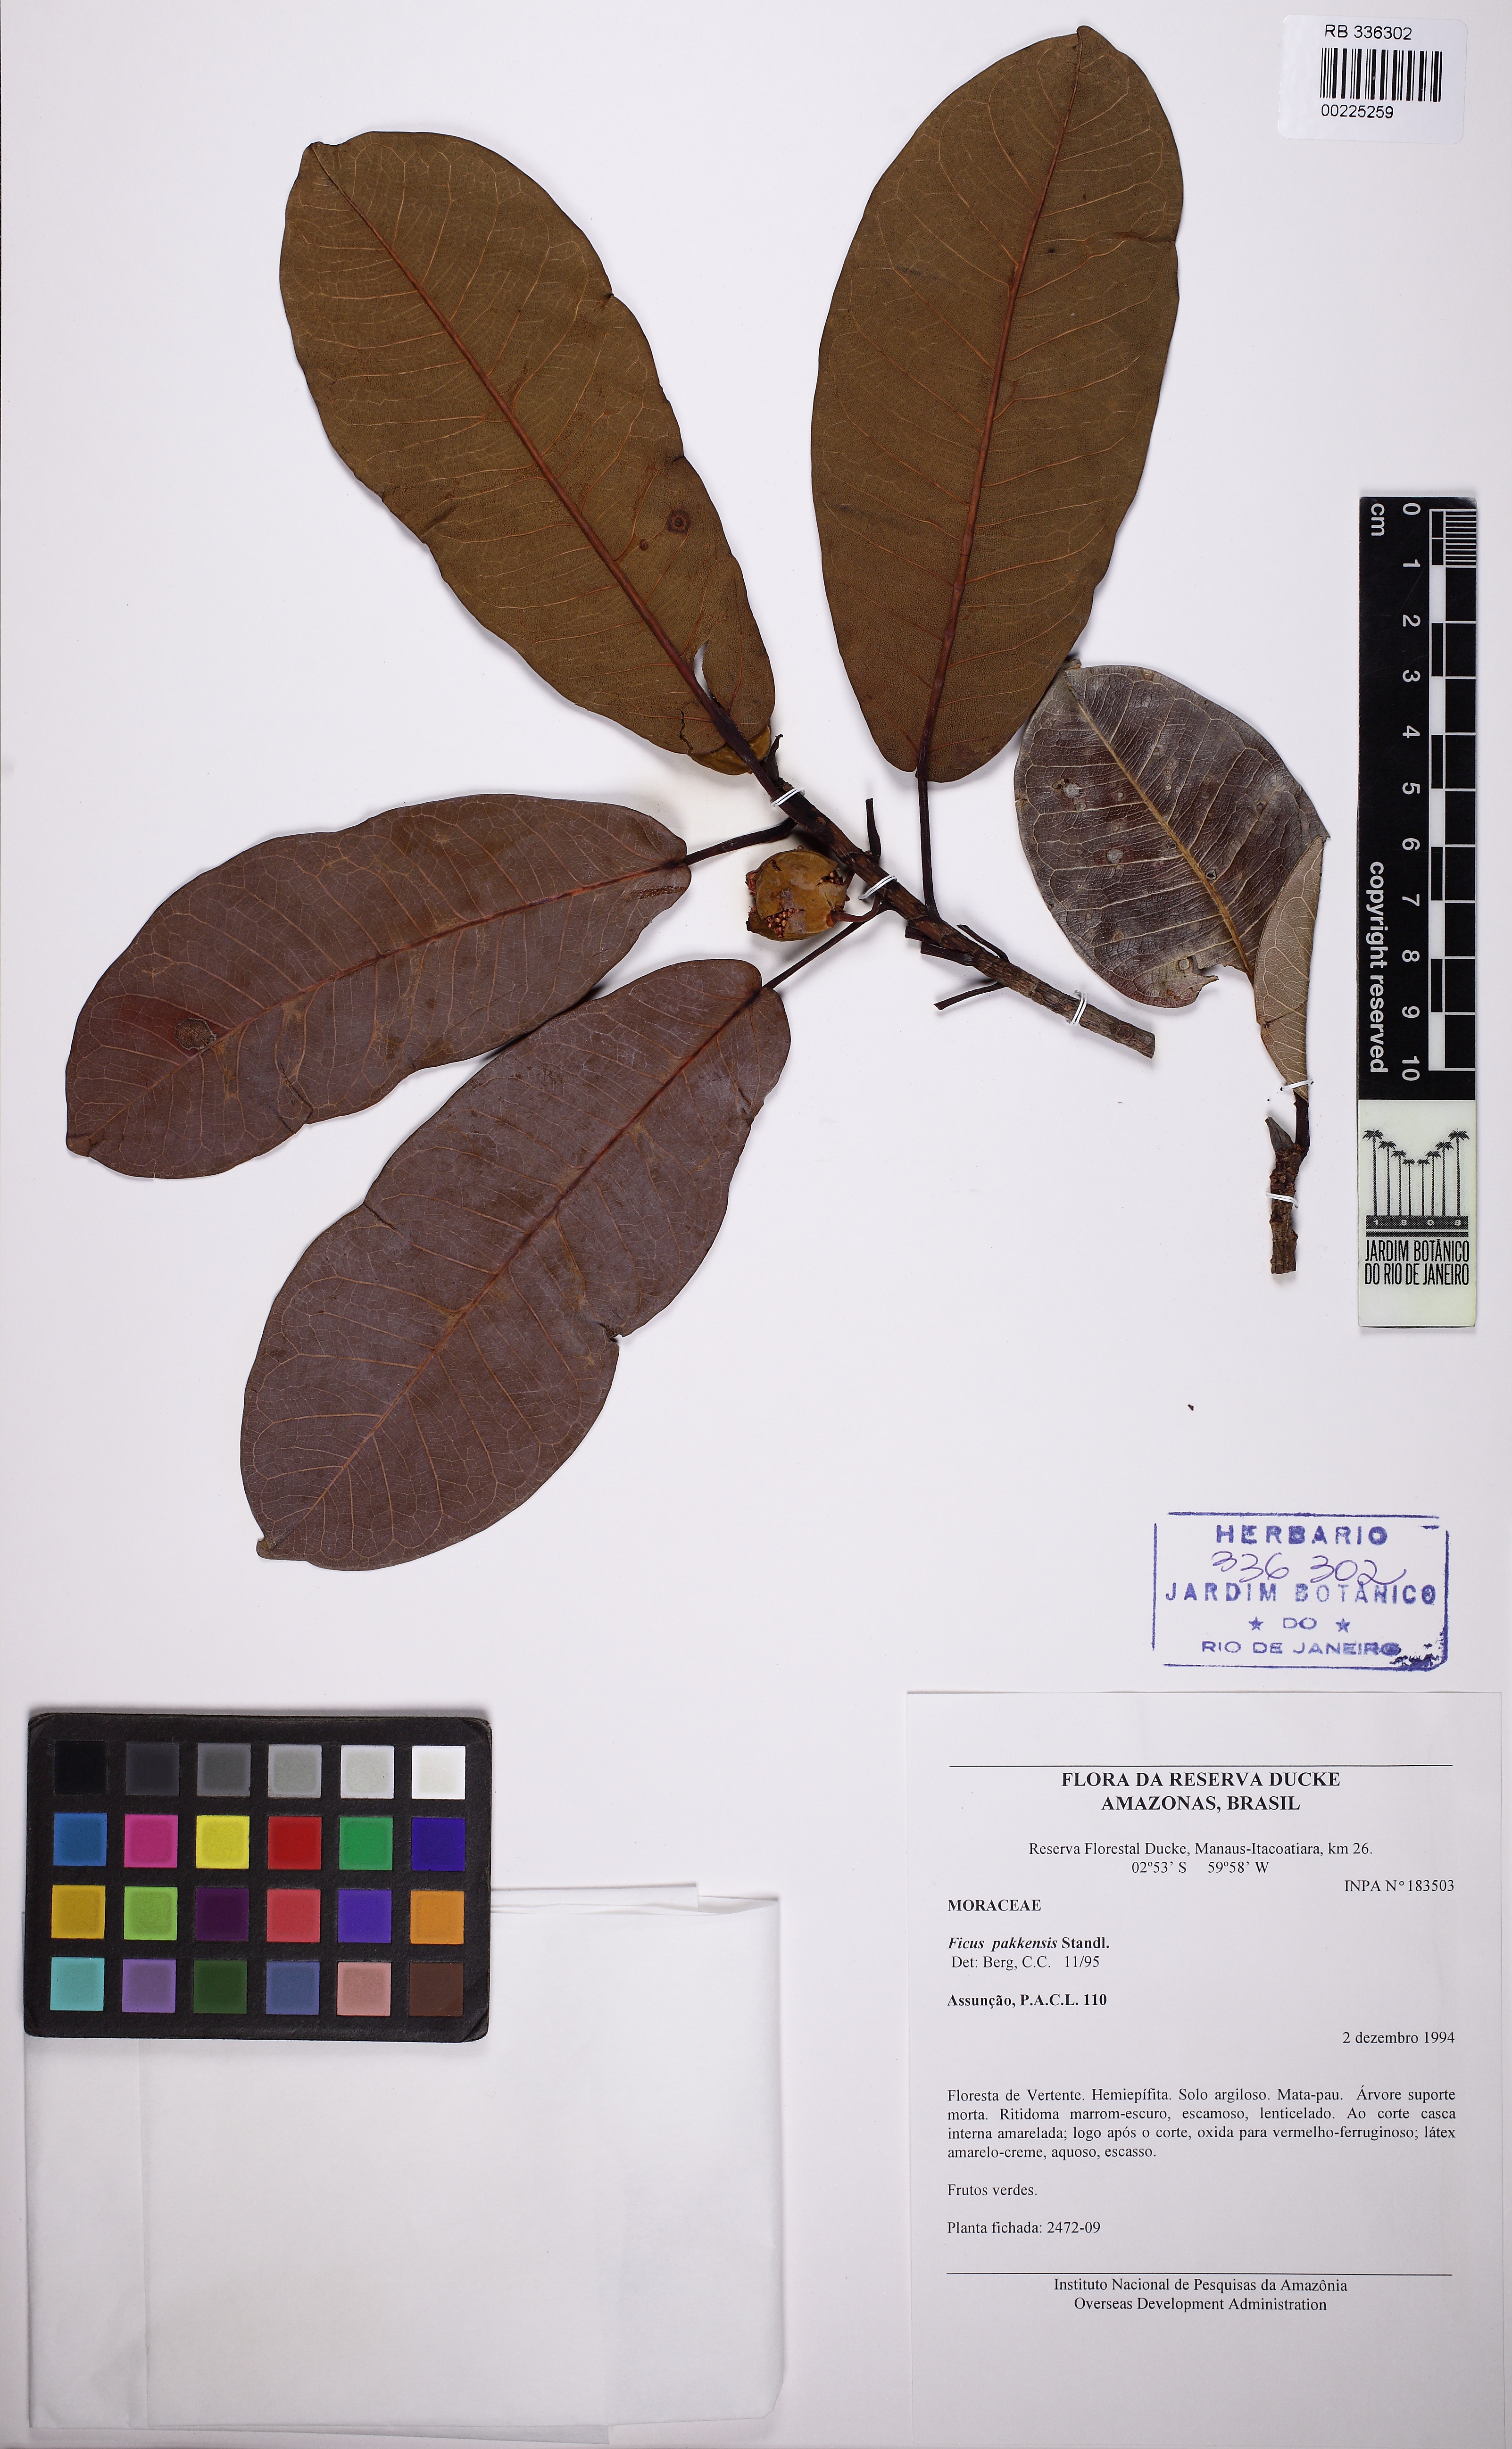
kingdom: Plantae
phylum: Tracheophyta
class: Magnoliopsida
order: Rosales
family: Moraceae
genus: Ficus
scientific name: Ficus pakkensis
